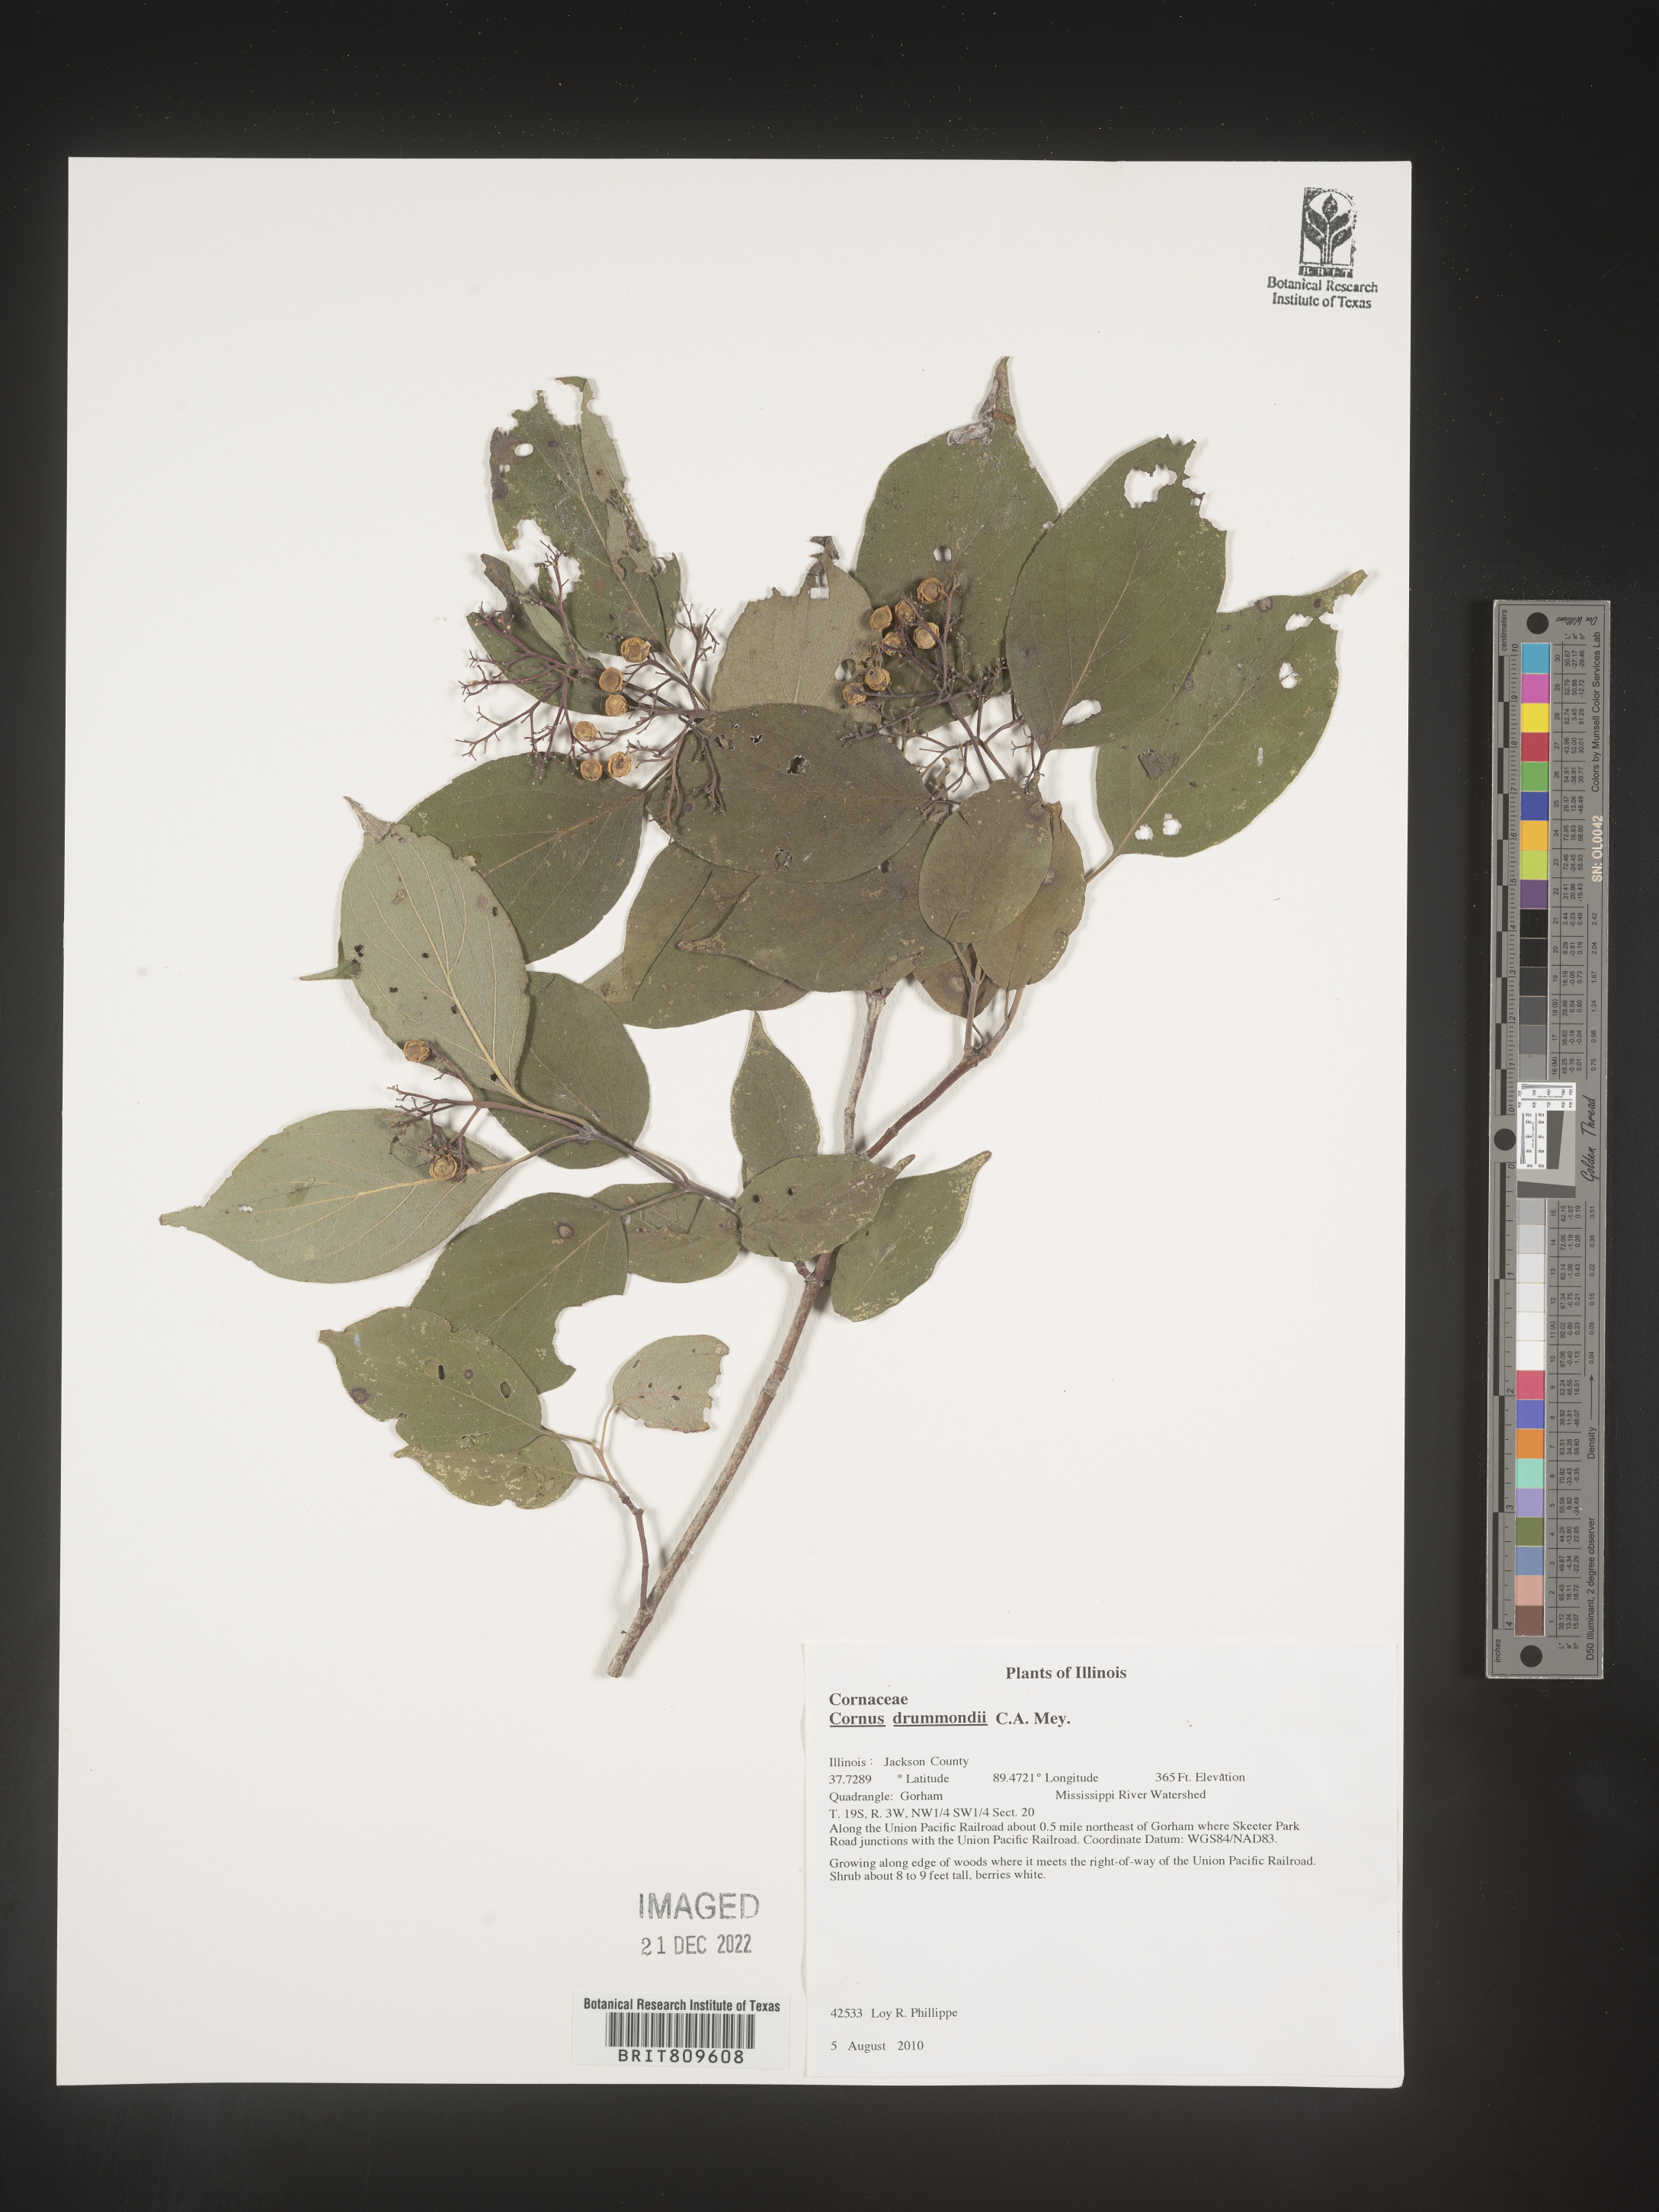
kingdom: Plantae
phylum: Tracheophyta
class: Magnoliopsida
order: Cornales
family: Cornaceae
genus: Cornus
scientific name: Cornus drummondii
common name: Rough-leaf dogwood
